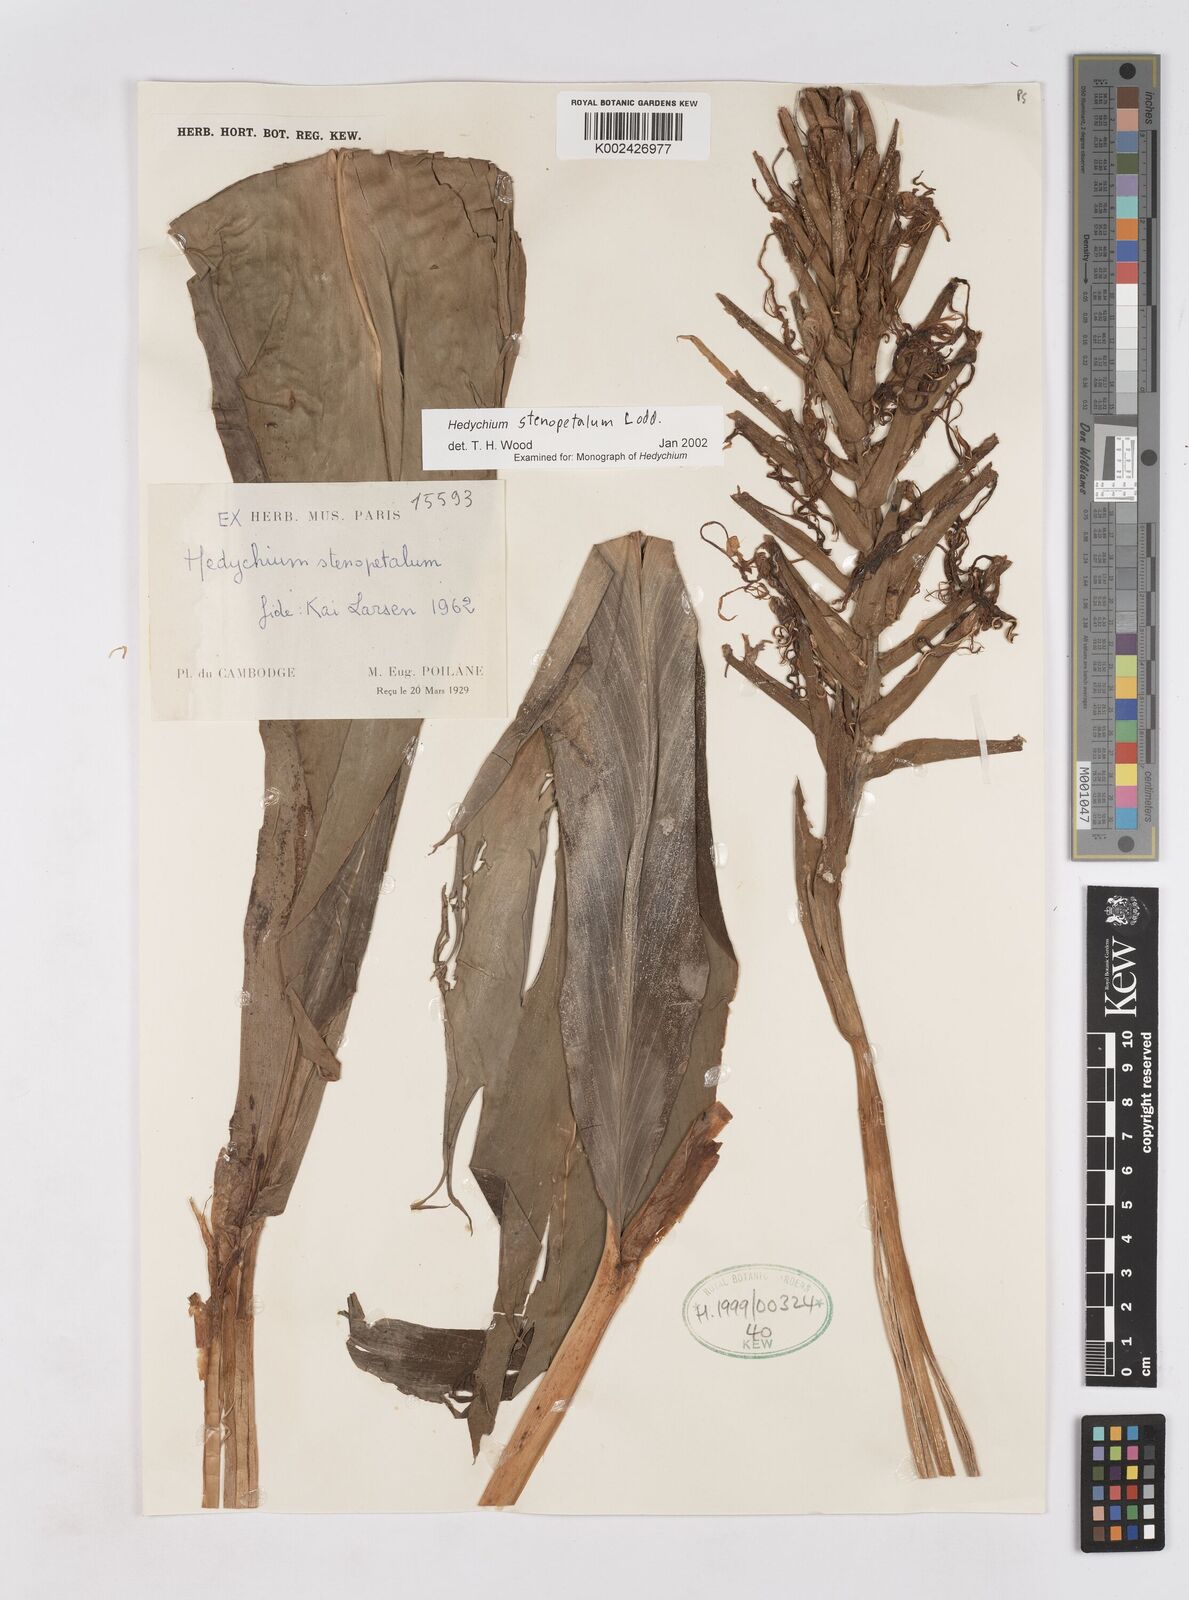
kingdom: Plantae
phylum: Tracheophyta
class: Liliopsida
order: Zingiberales
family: Zingiberaceae
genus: Hedychium
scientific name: Hedychium stenopetalum
